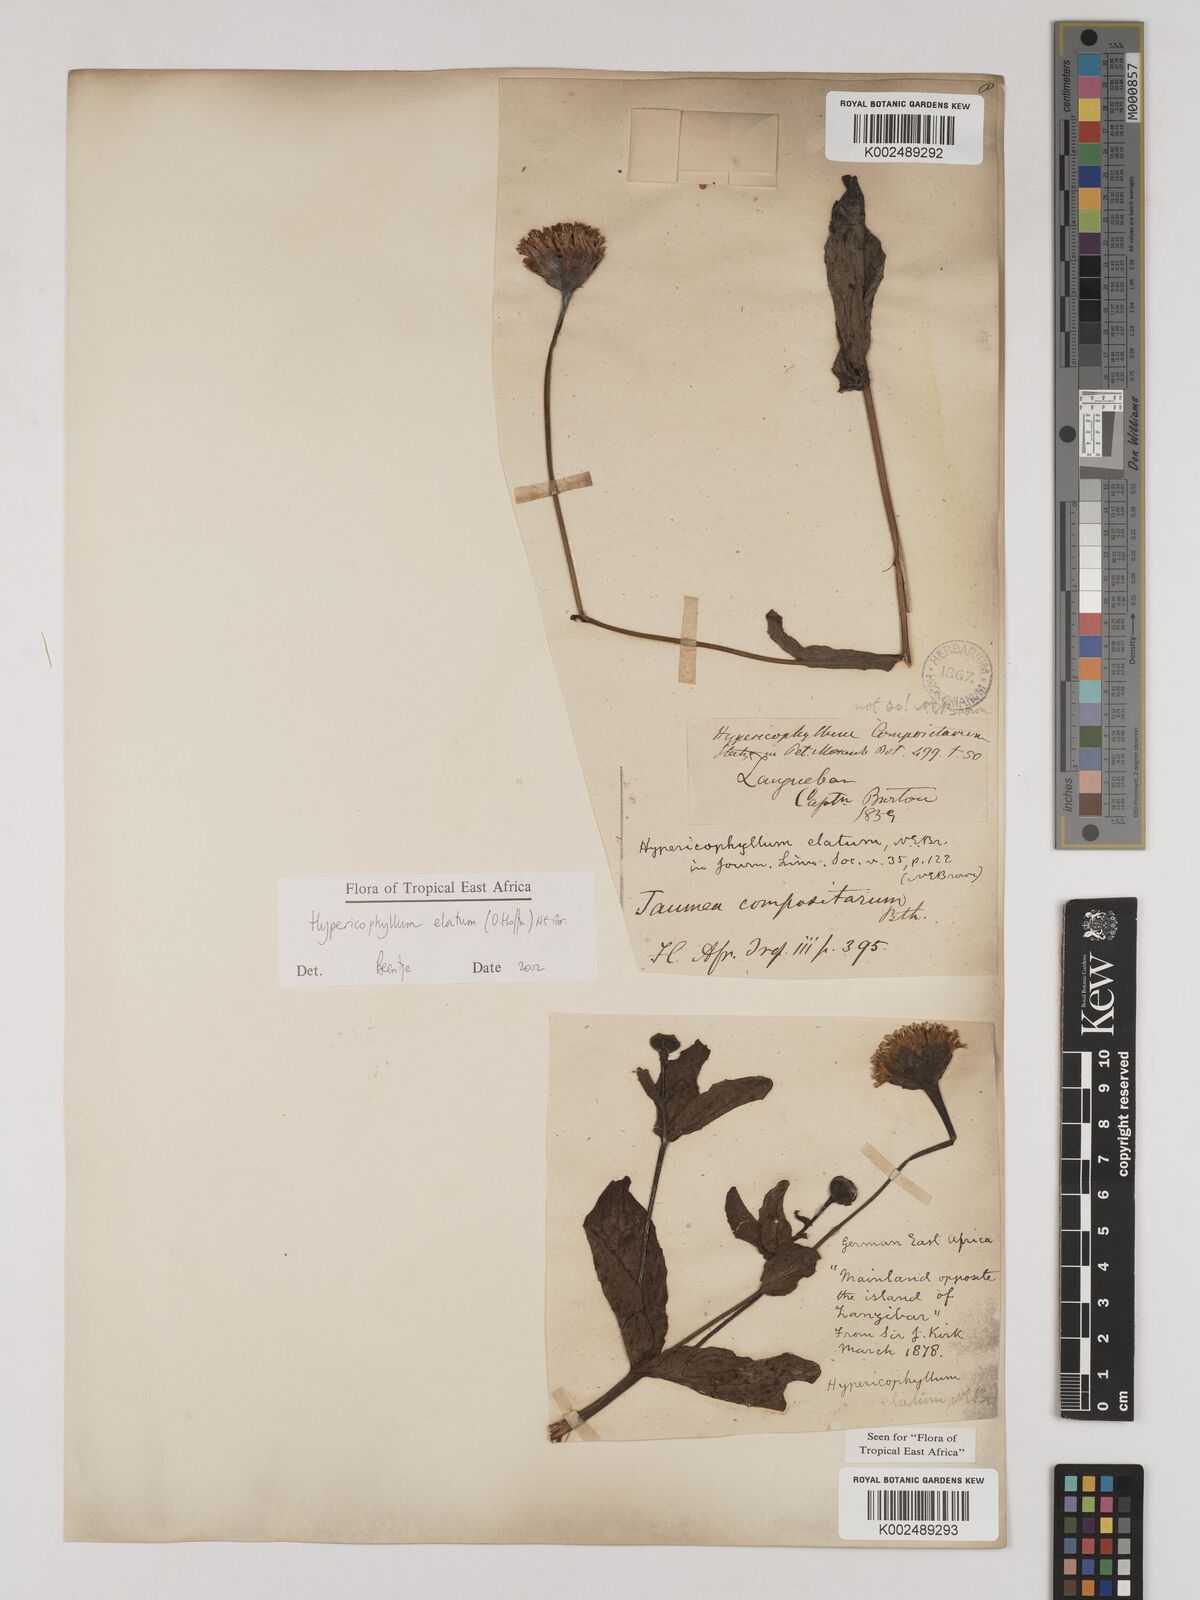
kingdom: Plantae
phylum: Tracheophyta
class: Magnoliopsida
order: Asterales
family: Asteraceae
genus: Hypericophyllum
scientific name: Hypericophyllum elatum
